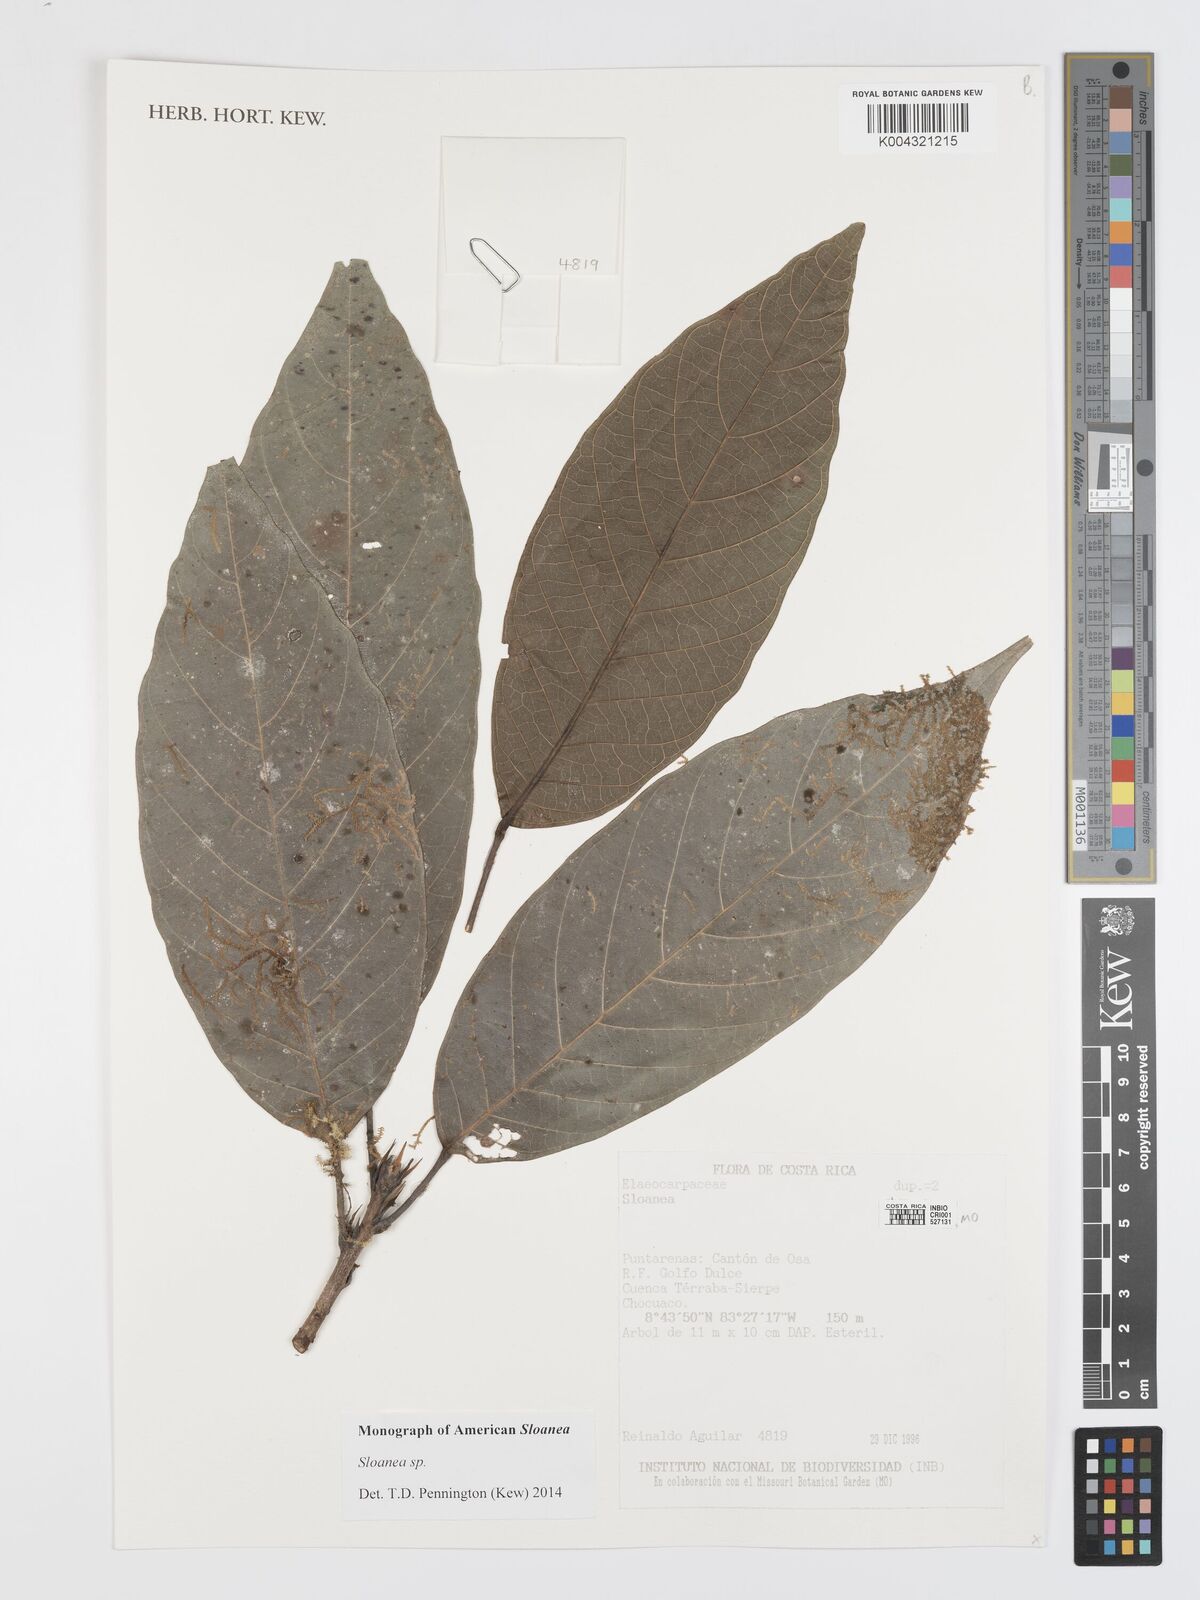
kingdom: Plantae
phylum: Tracheophyta
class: Magnoliopsida
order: Oxalidales
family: Elaeocarpaceae
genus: Sloanea
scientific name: Sloanea
